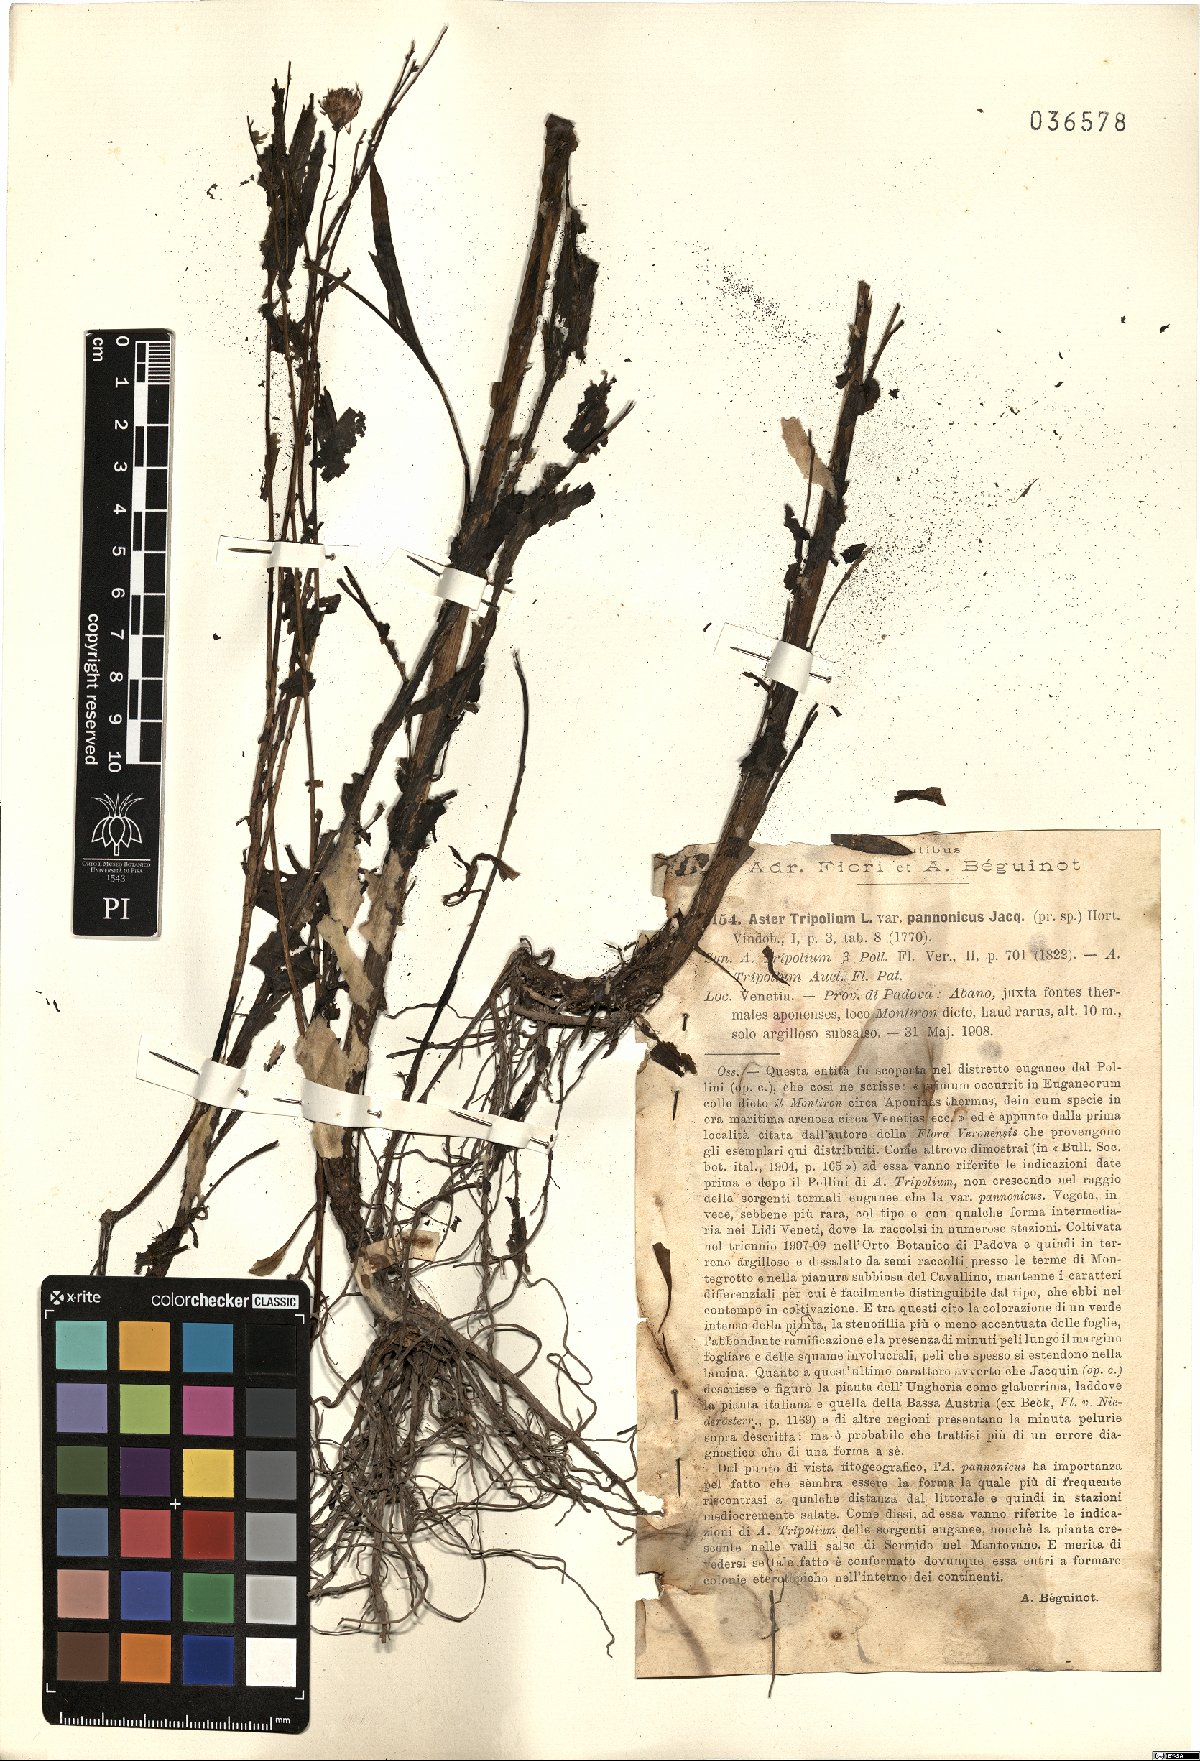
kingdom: Plantae
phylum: Tracheophyta
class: Magnoliopsida
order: Asterales
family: Asteraceae
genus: Tripolium
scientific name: Tripolium pannonicum
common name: Sea aster
